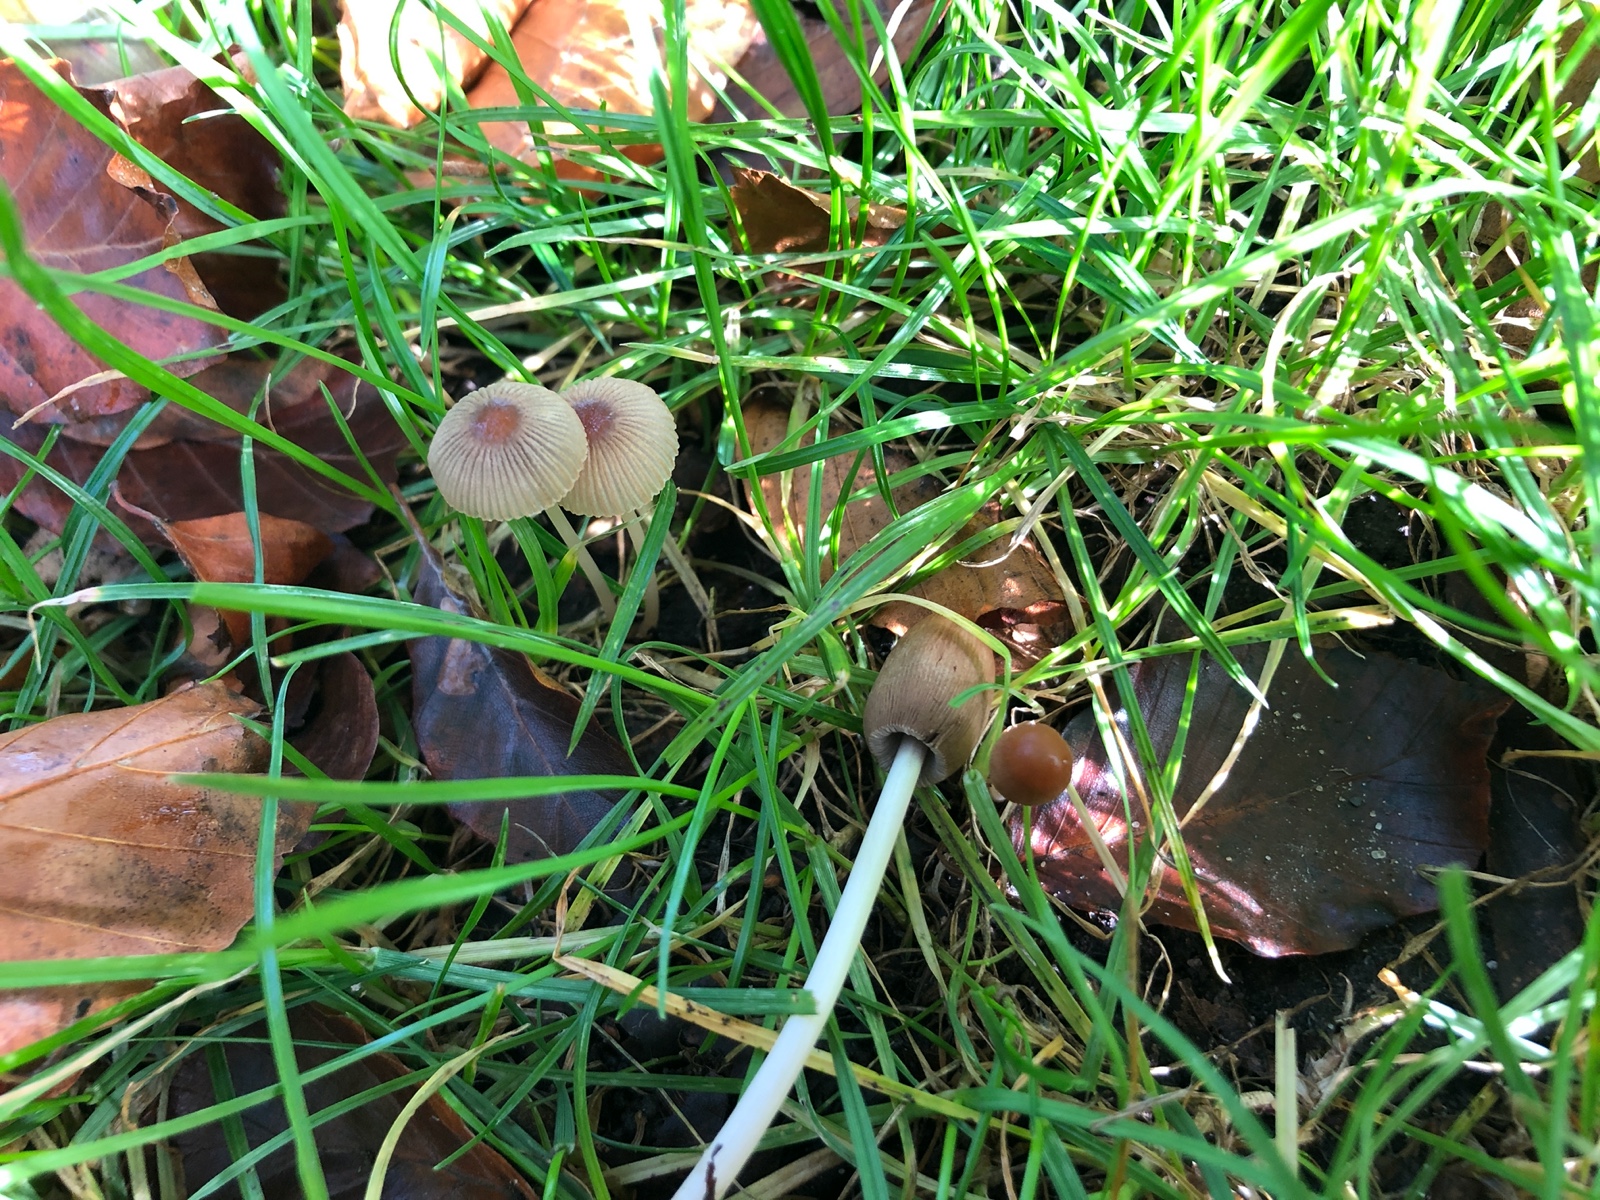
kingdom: Fungi
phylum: Basidiomycota
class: Agaricomycetes
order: Agaricales
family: Psathyrellaceae
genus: Parasola
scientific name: Parasola
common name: hjulhat
